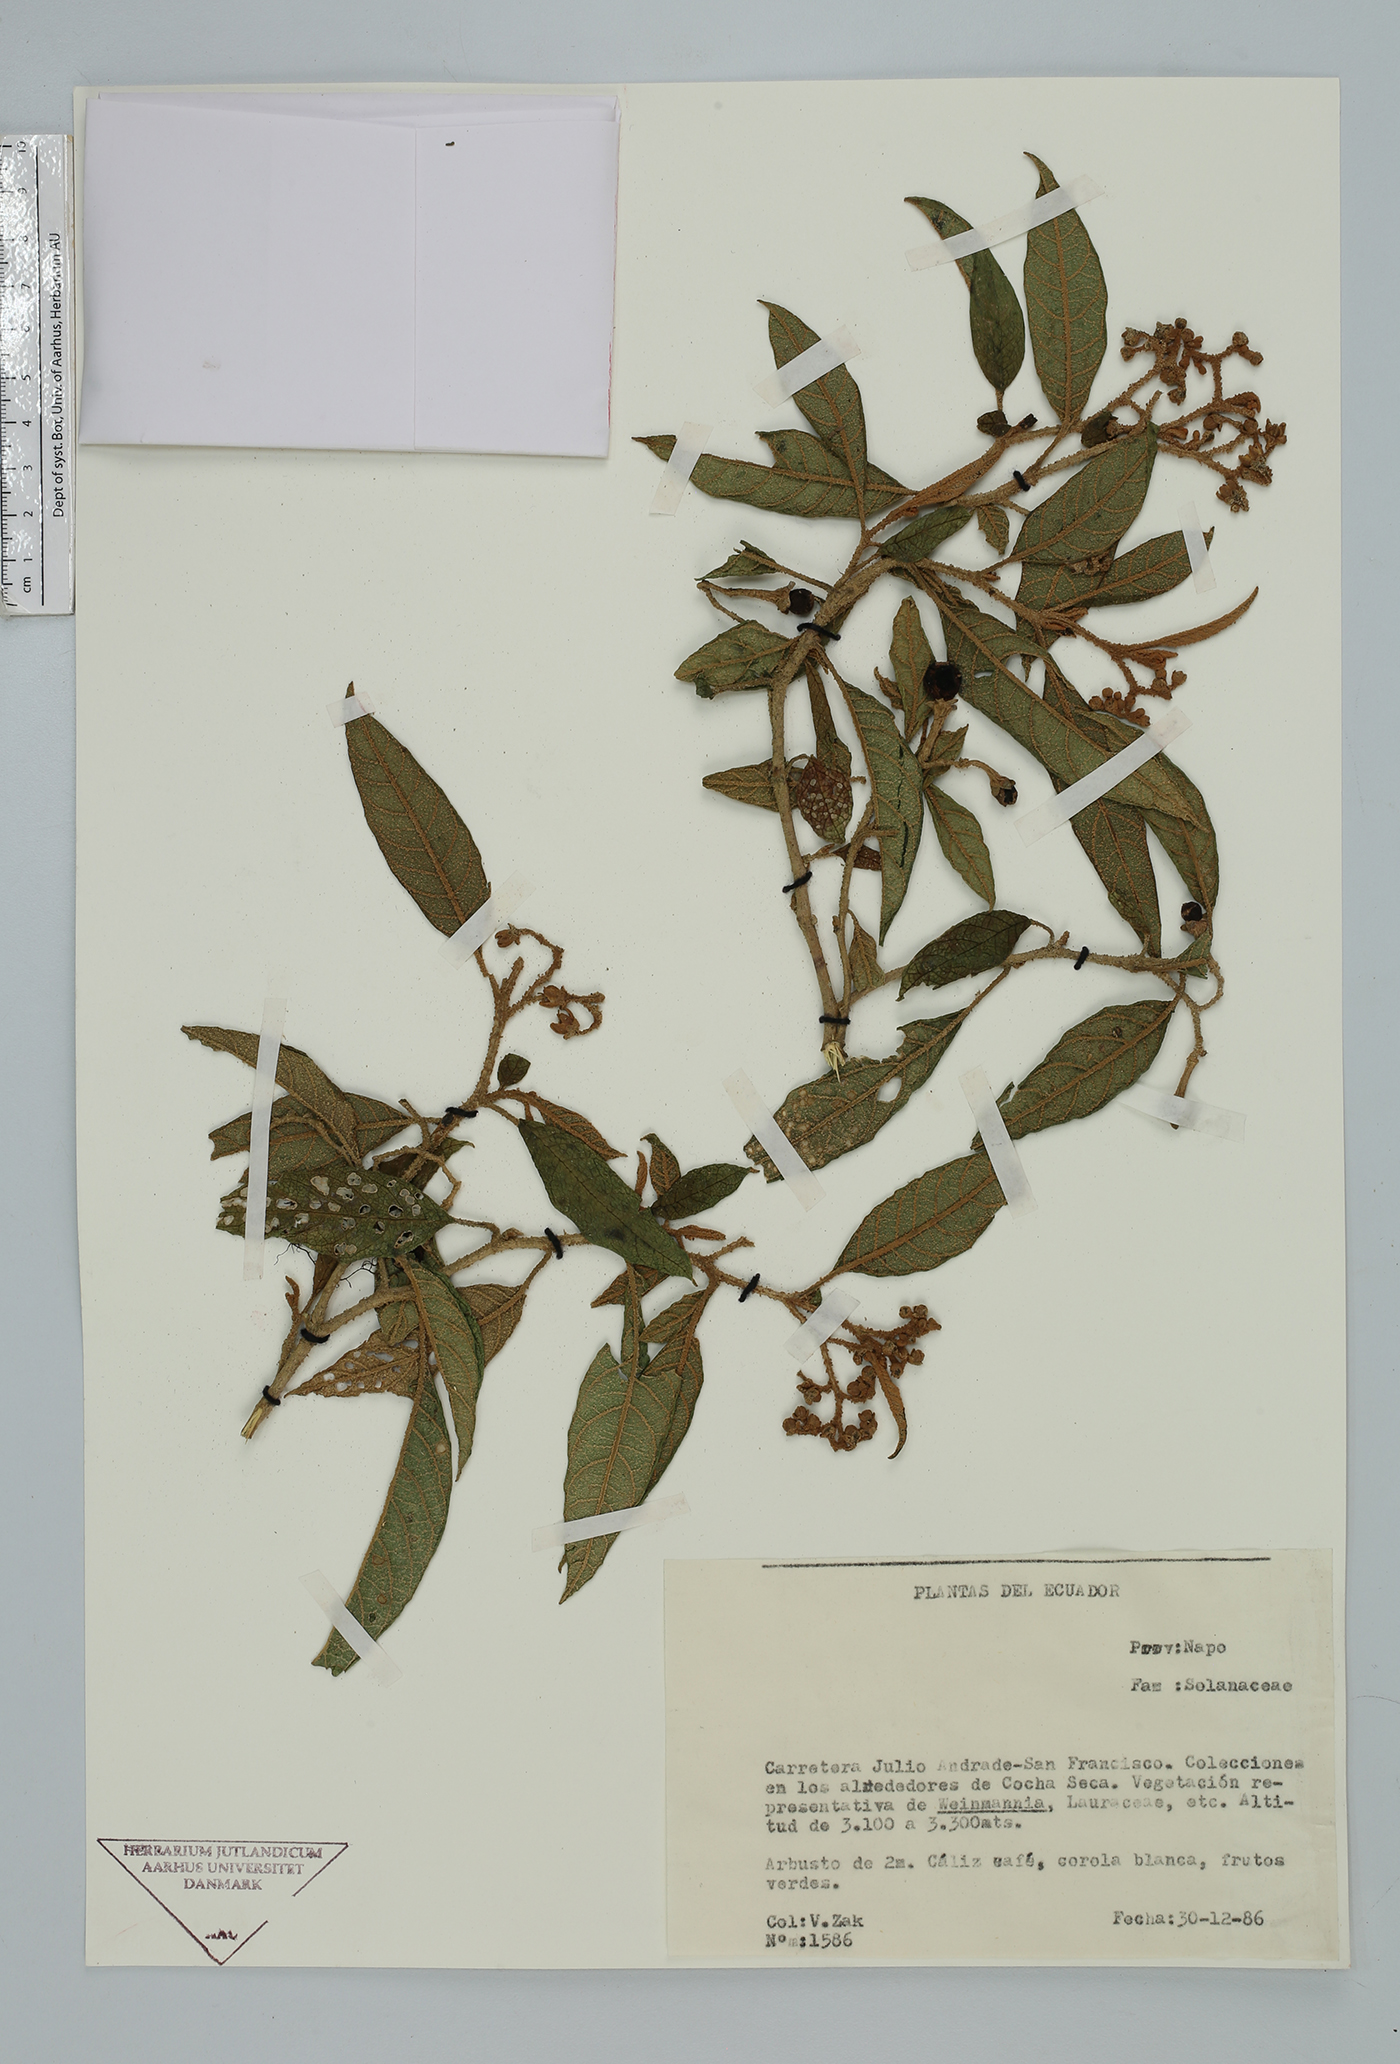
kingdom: Plantae
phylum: Tracheophyta
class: Magnoliopsida
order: Solanales
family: Solanaceae
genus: Solanum
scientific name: Solanum
